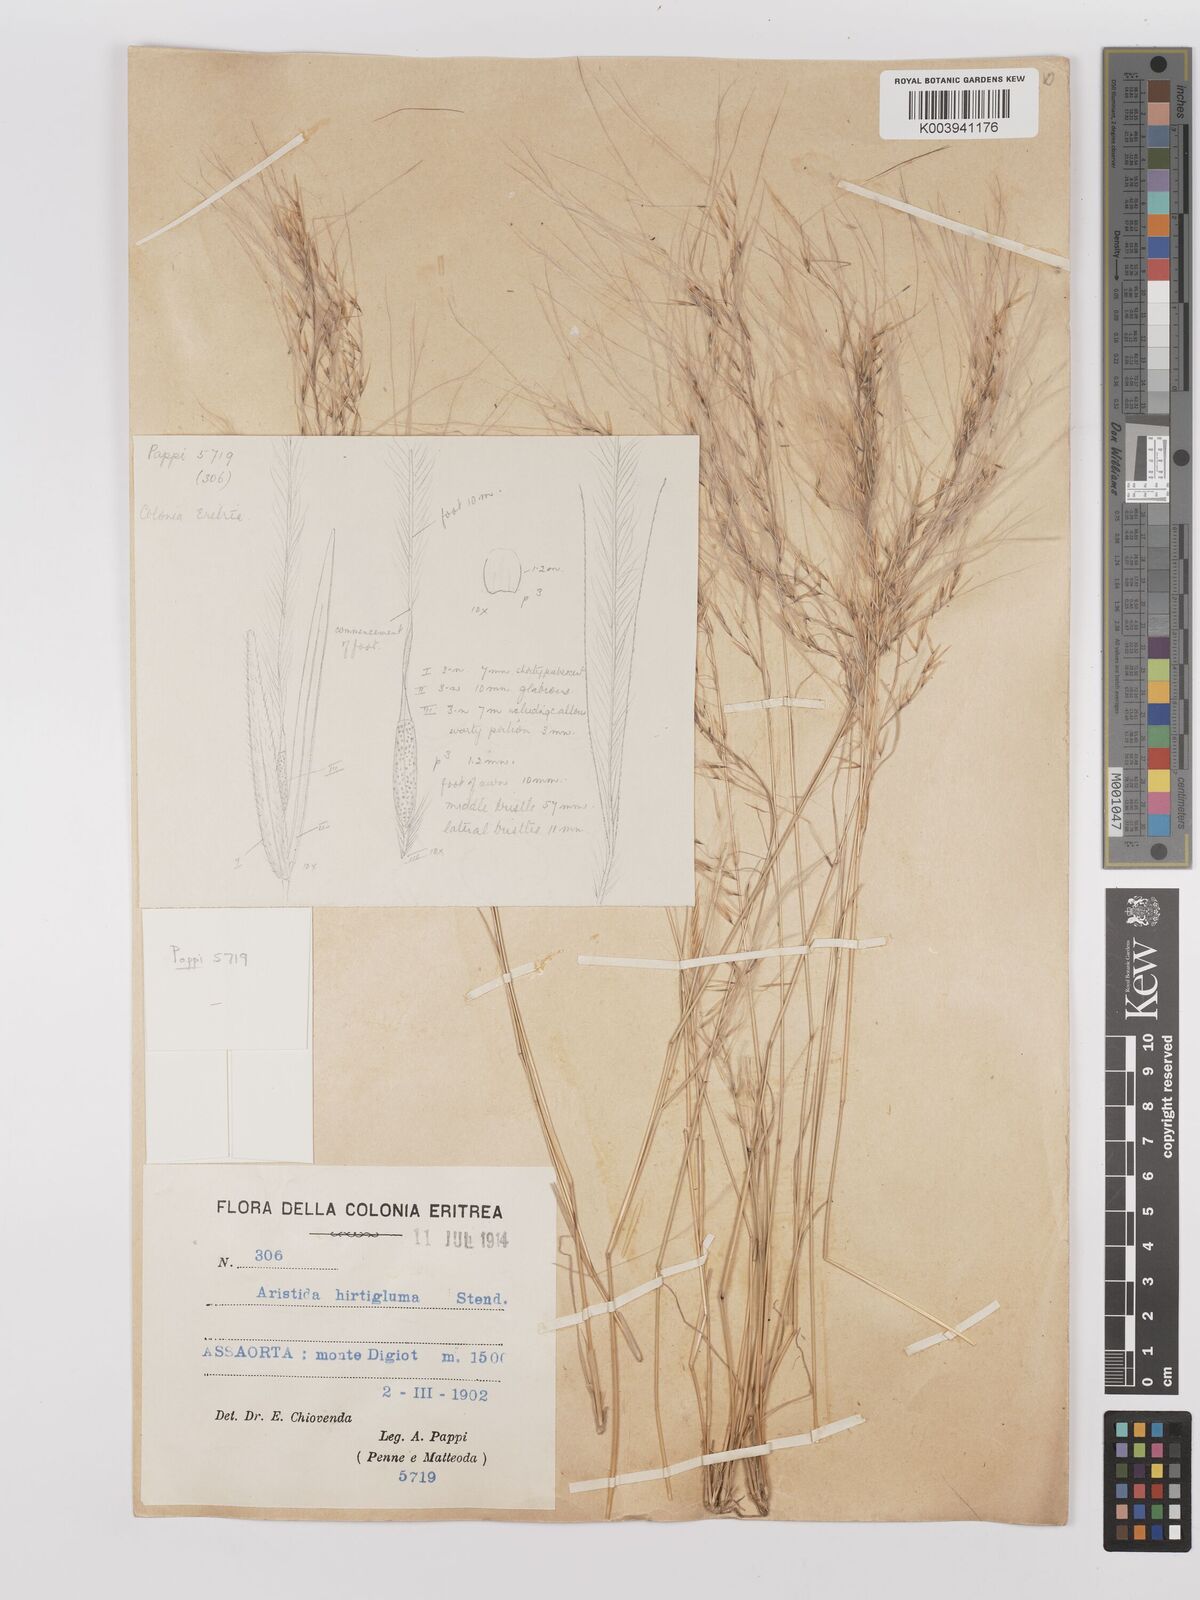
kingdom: Plantae
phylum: Tracheophyta
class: Liliopsida
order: Poales
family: Poaceae
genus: Stipagrostis
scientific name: Stipagrostis hirtigluma
